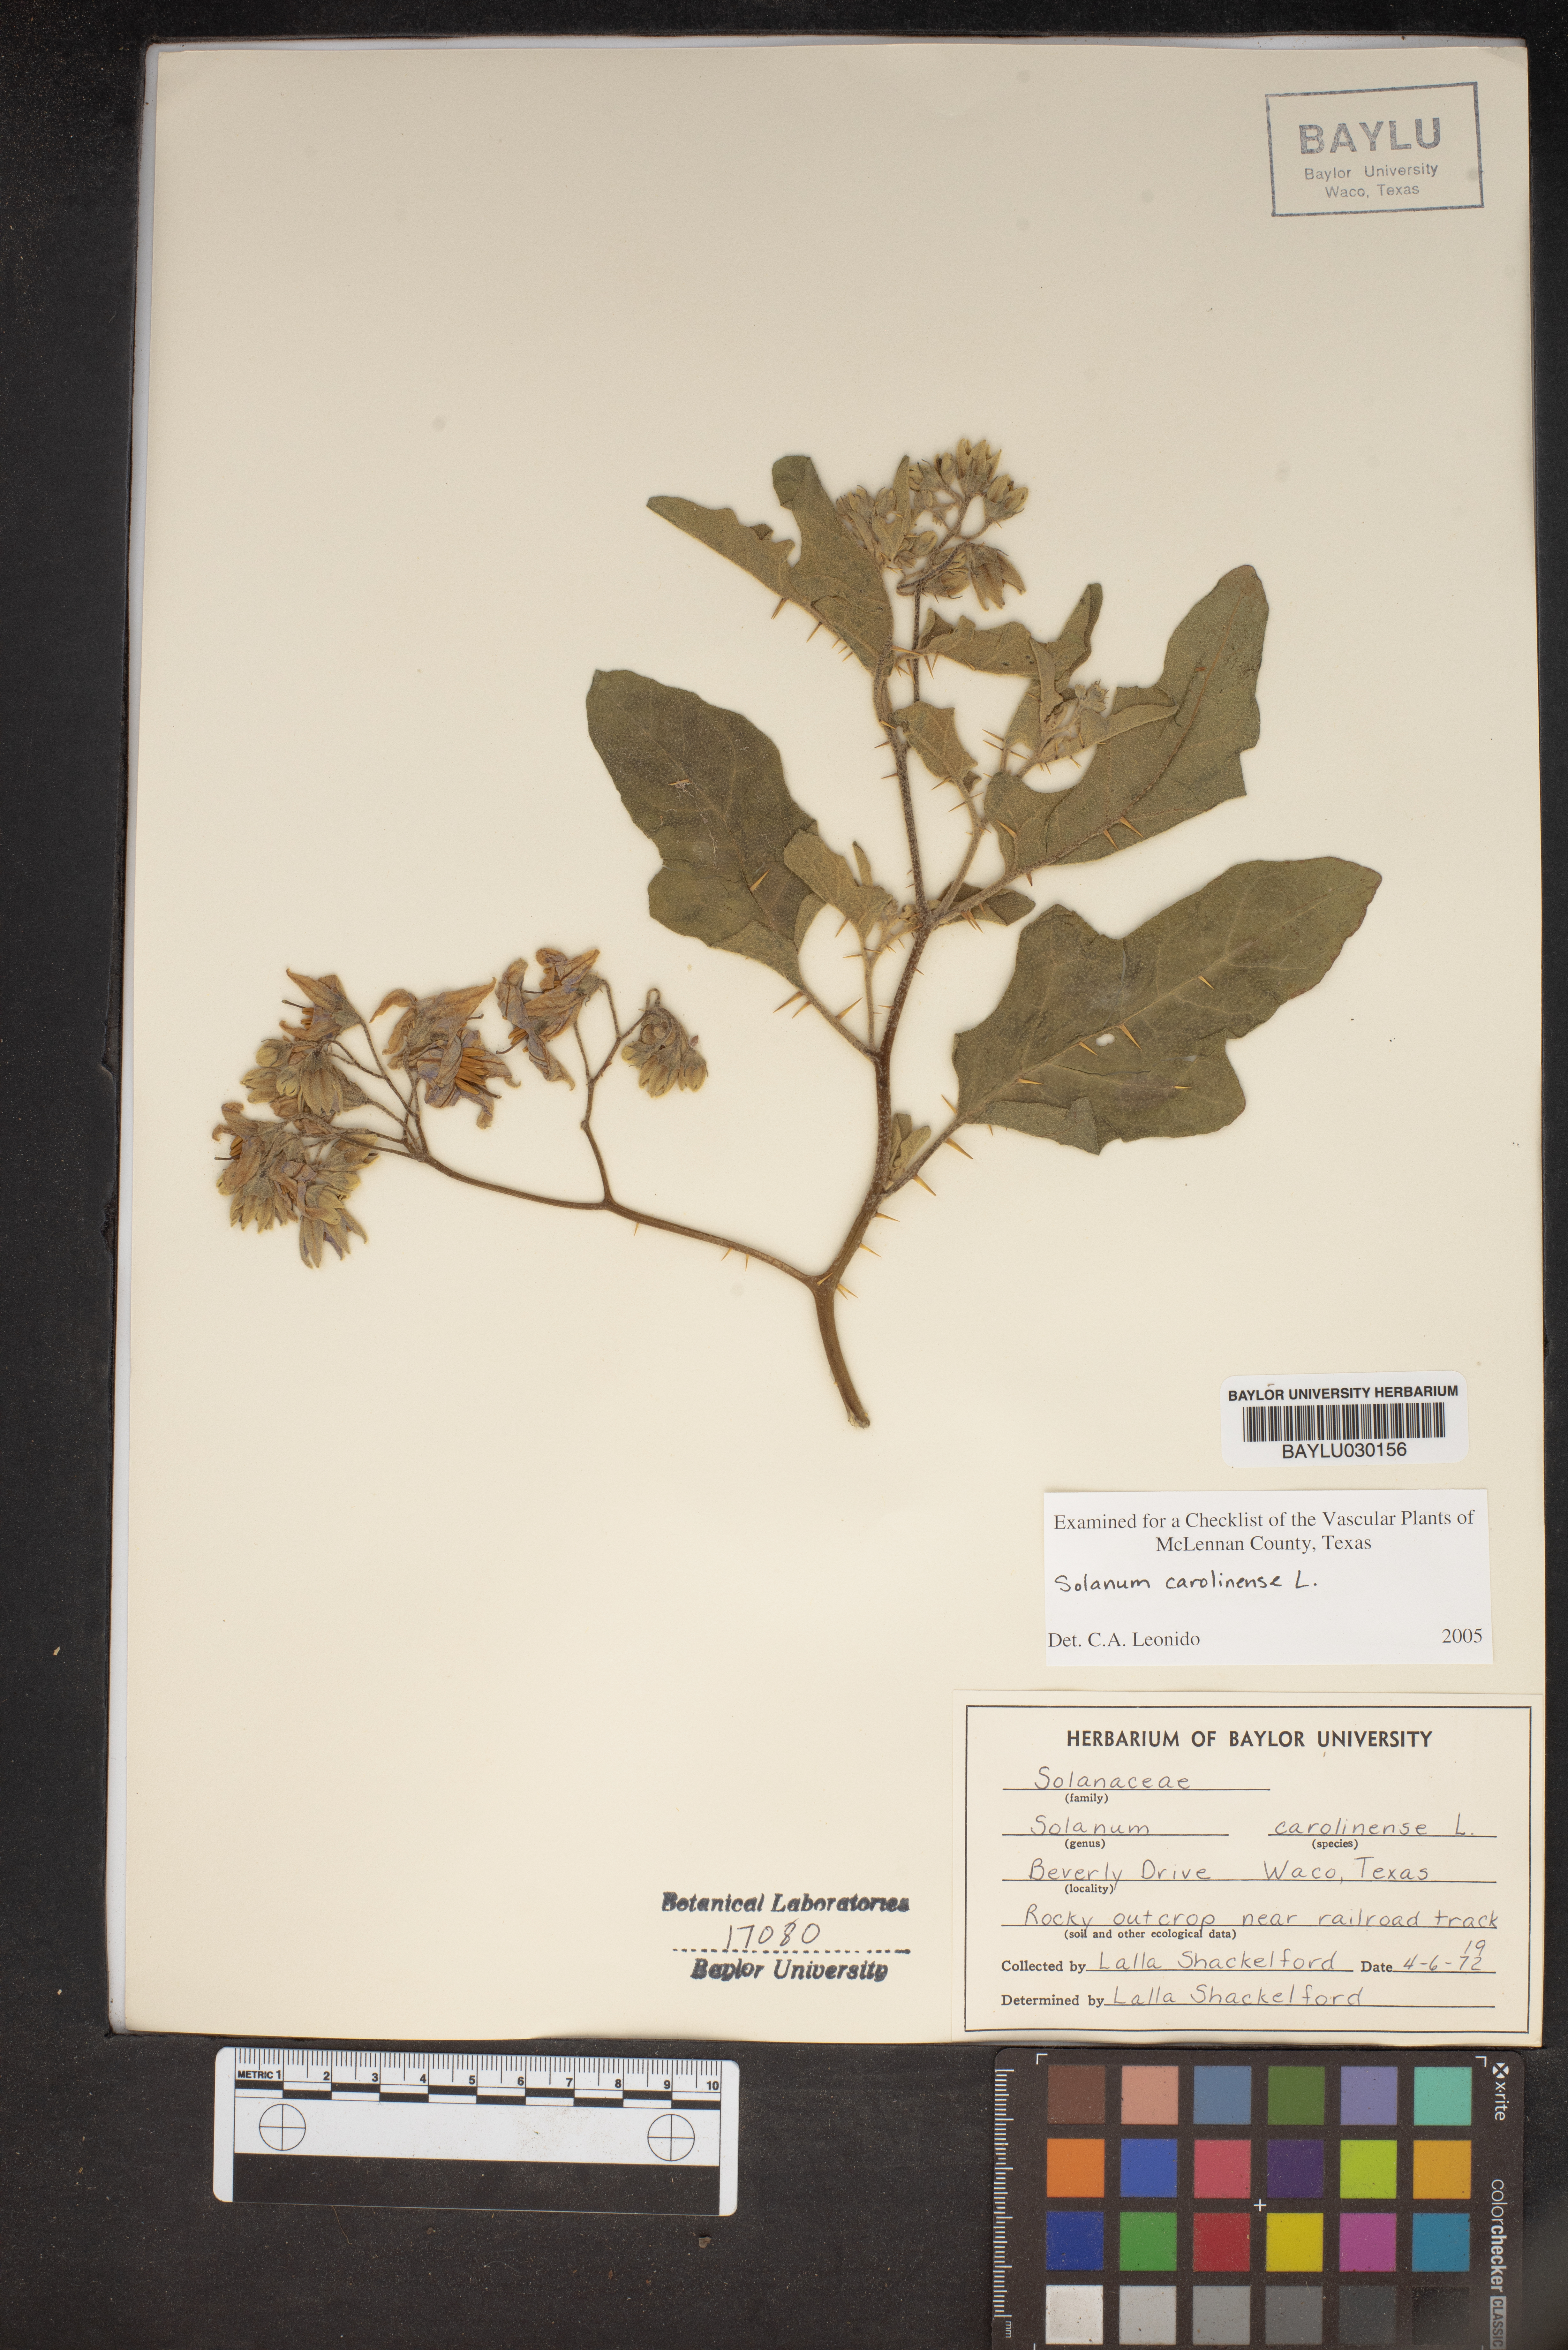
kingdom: Plantae
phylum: Tracheophyta
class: Magnoliopsida
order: Solanales
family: Solanaceae
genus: Solanum
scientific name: Solanum carolinense
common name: Horse-nettle
